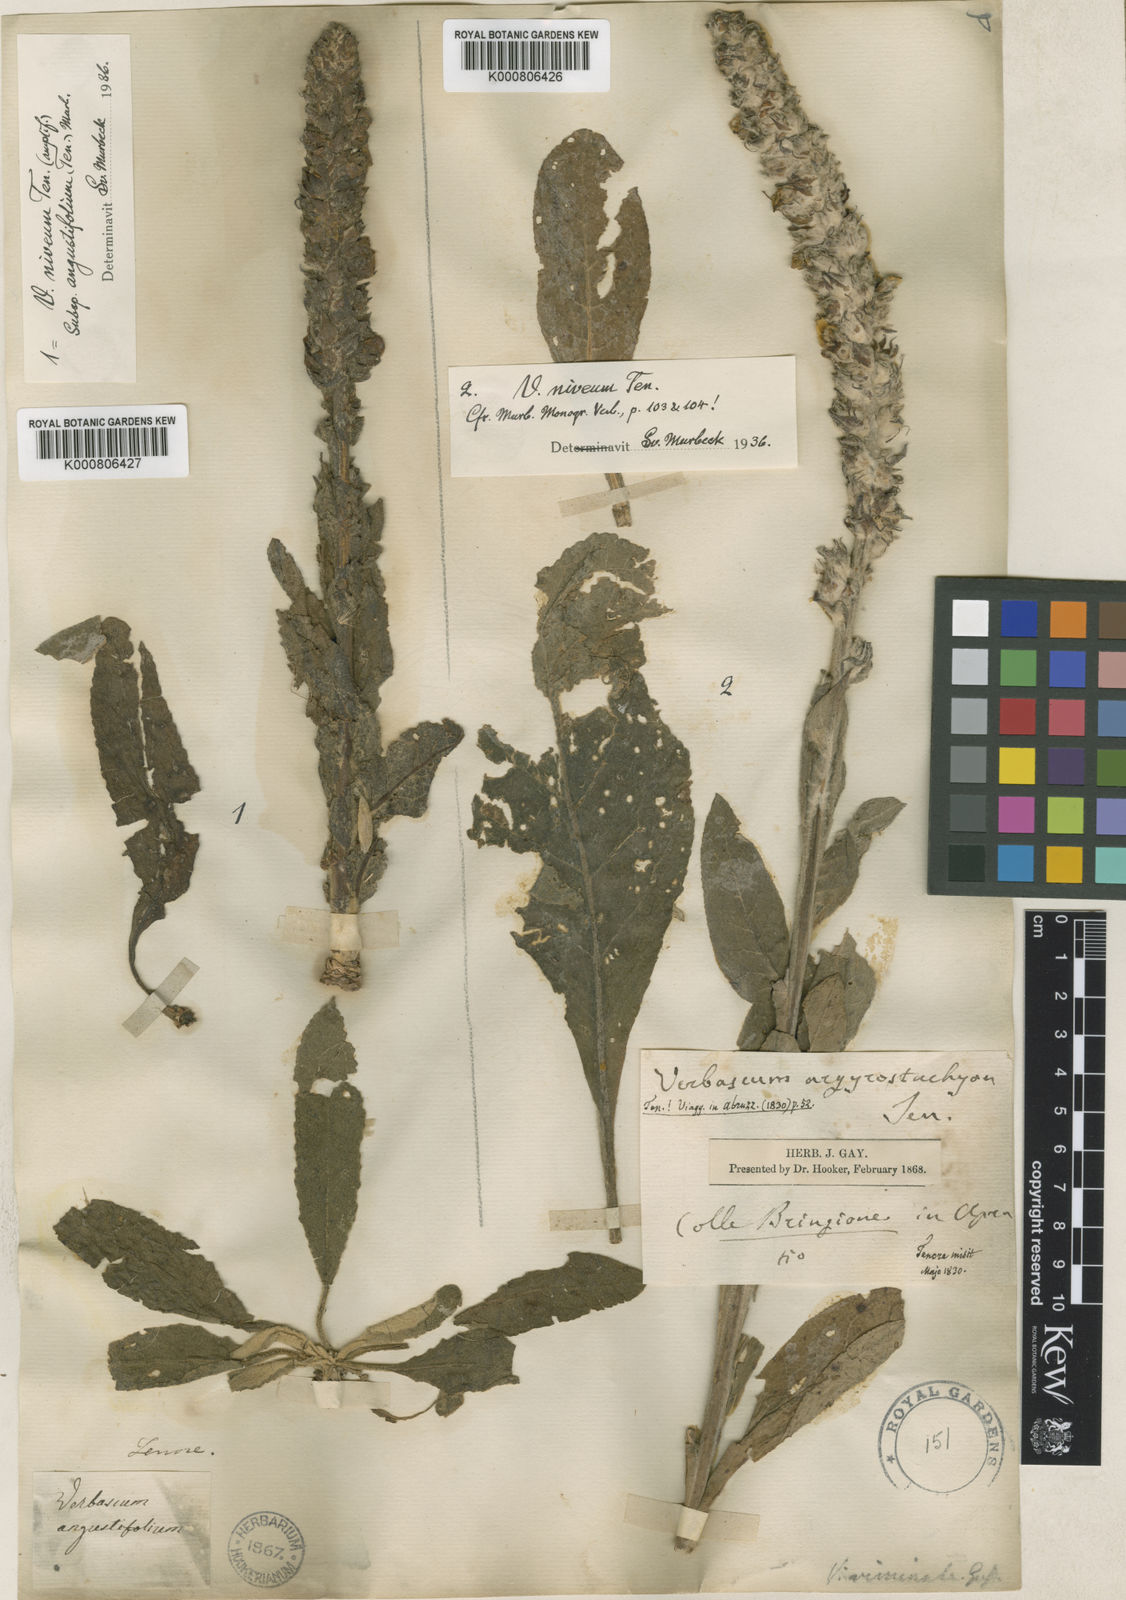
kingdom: Plantae
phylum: Tracheophyta
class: Magnoliopsida
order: Lamiales
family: Scrophulariaceae
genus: Verbascum
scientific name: Verbascum niveum
